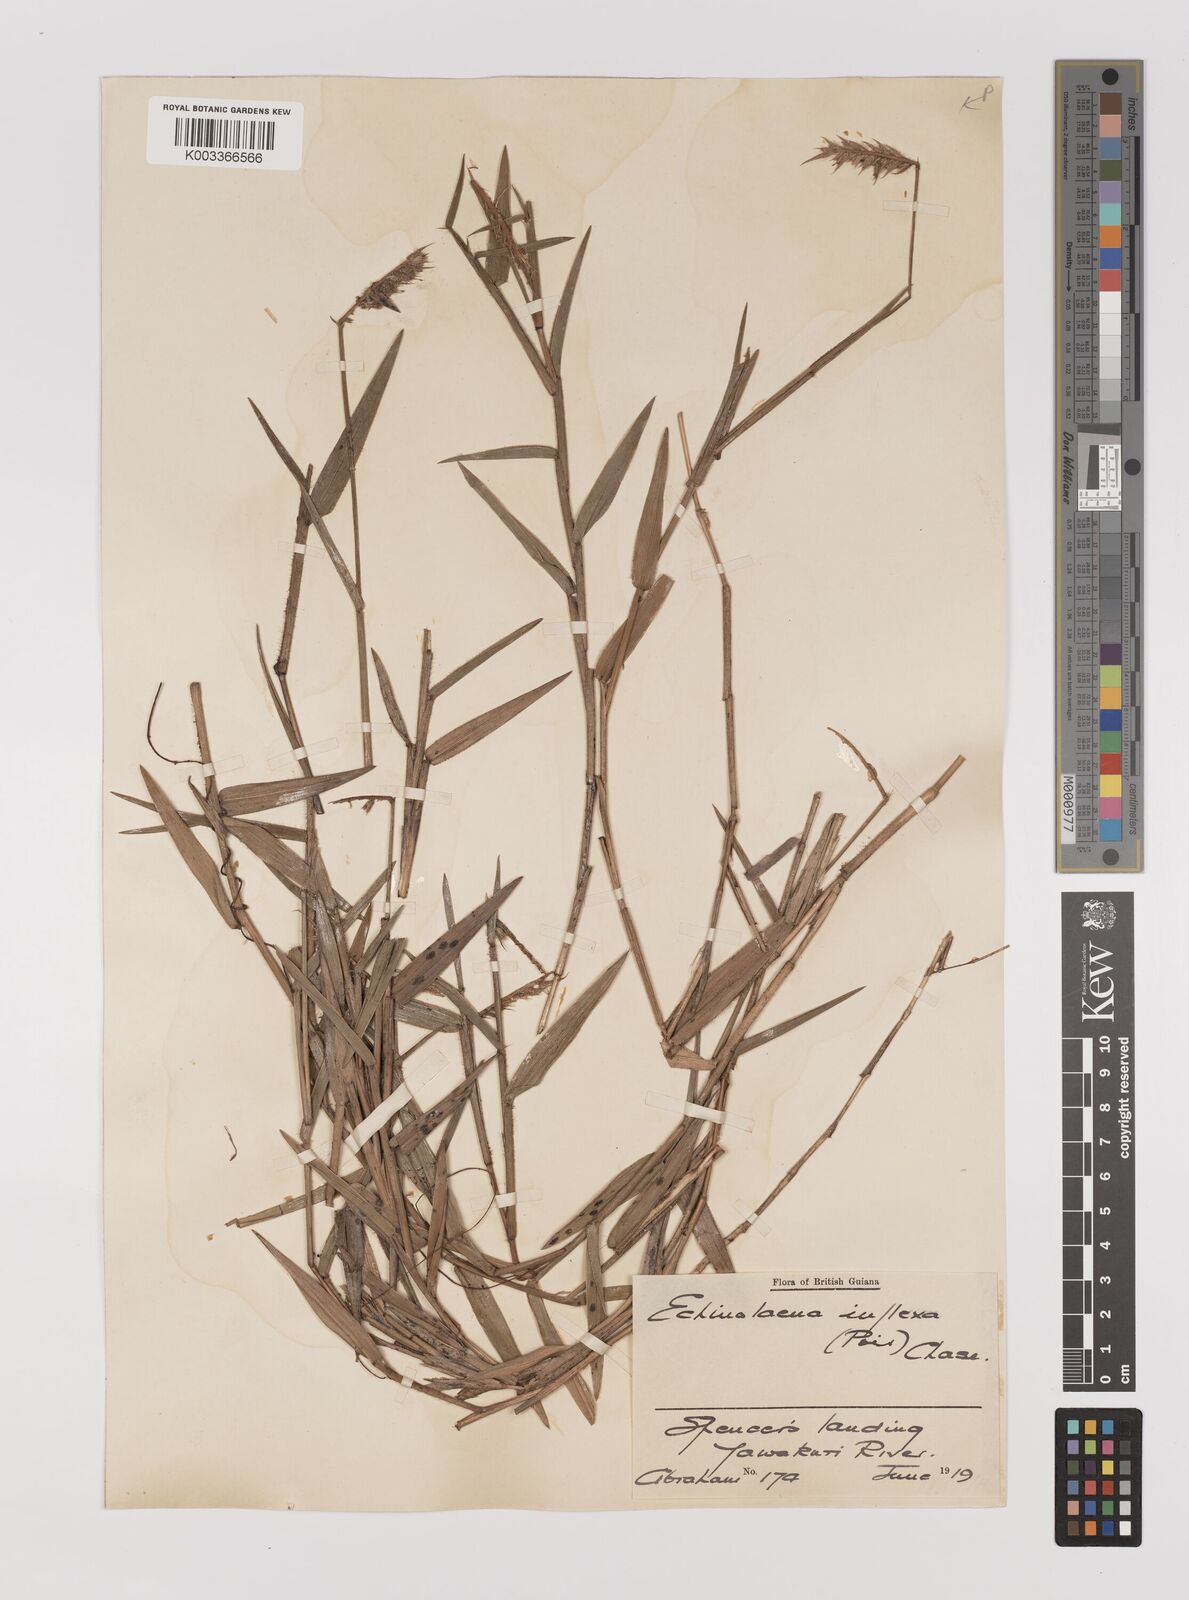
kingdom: Plantae
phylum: Tracheophyta
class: Liliopsida
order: Poales
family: Poaceae
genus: Echinolaena
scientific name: Echinolaena inflexa
